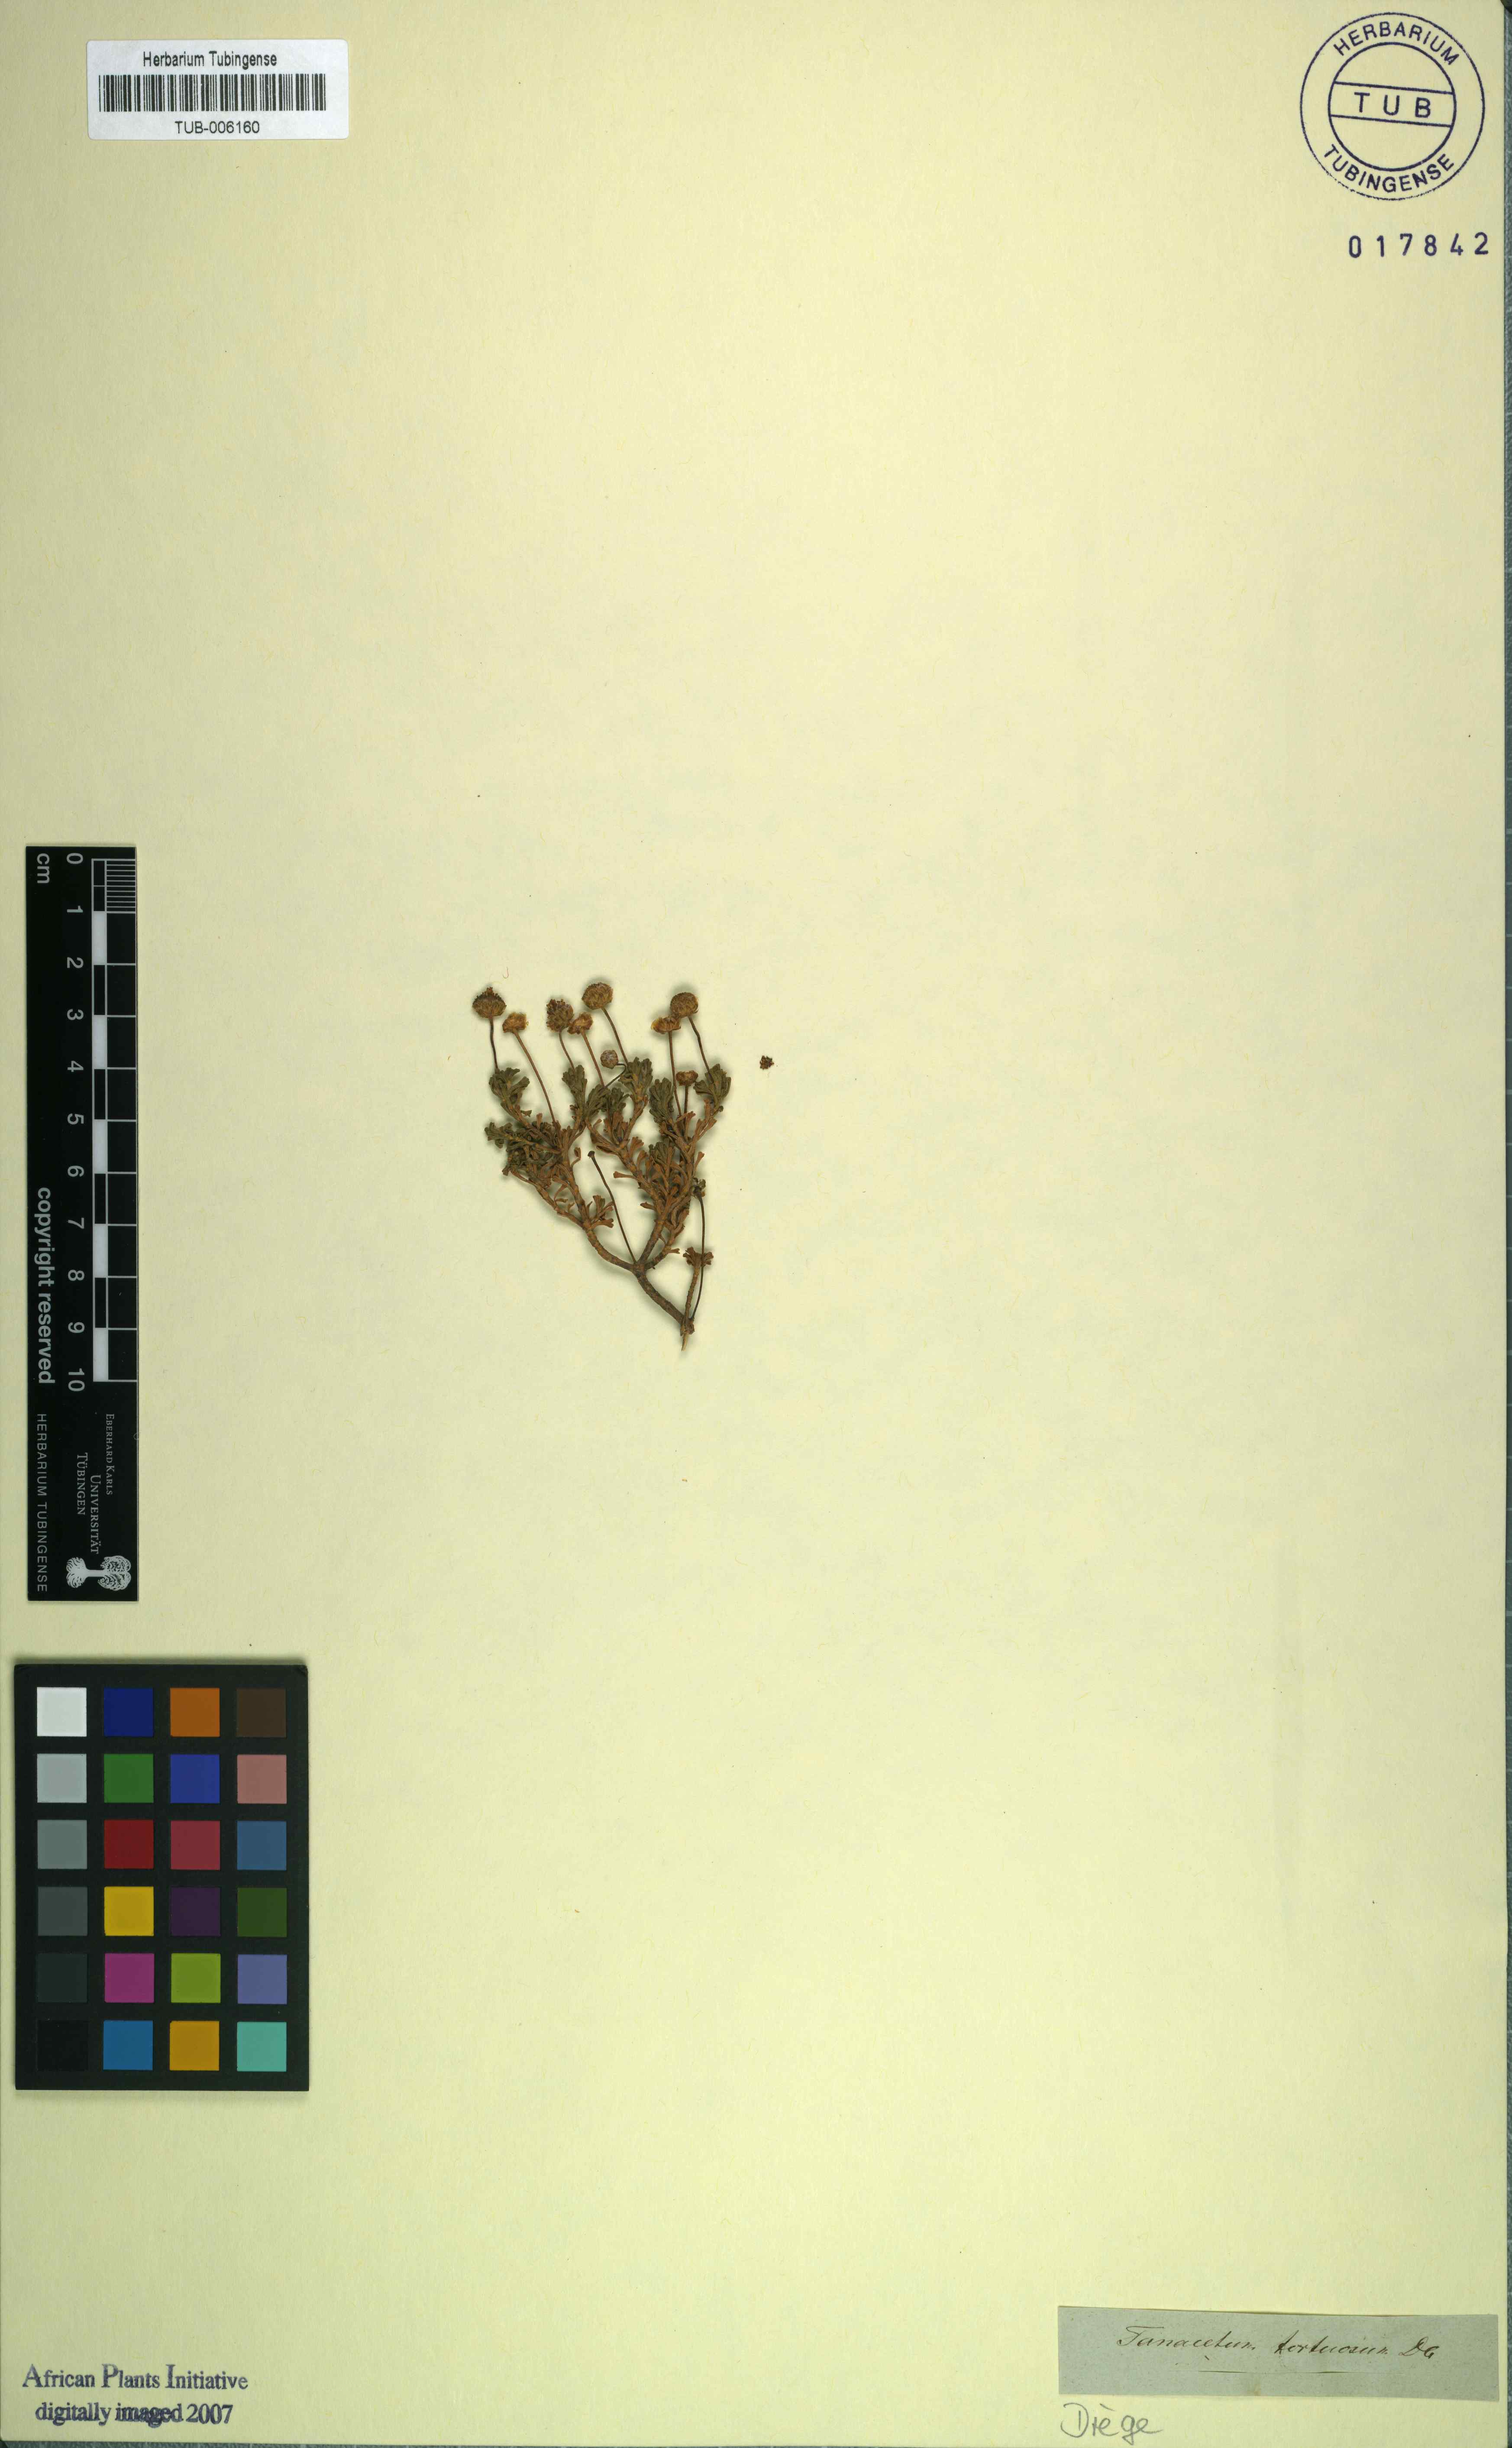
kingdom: Plantae
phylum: Tracheophyta
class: Magnoliopsida
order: Asterales
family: Asteraceae
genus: Pentzia
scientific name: Pentzia tortuosa
